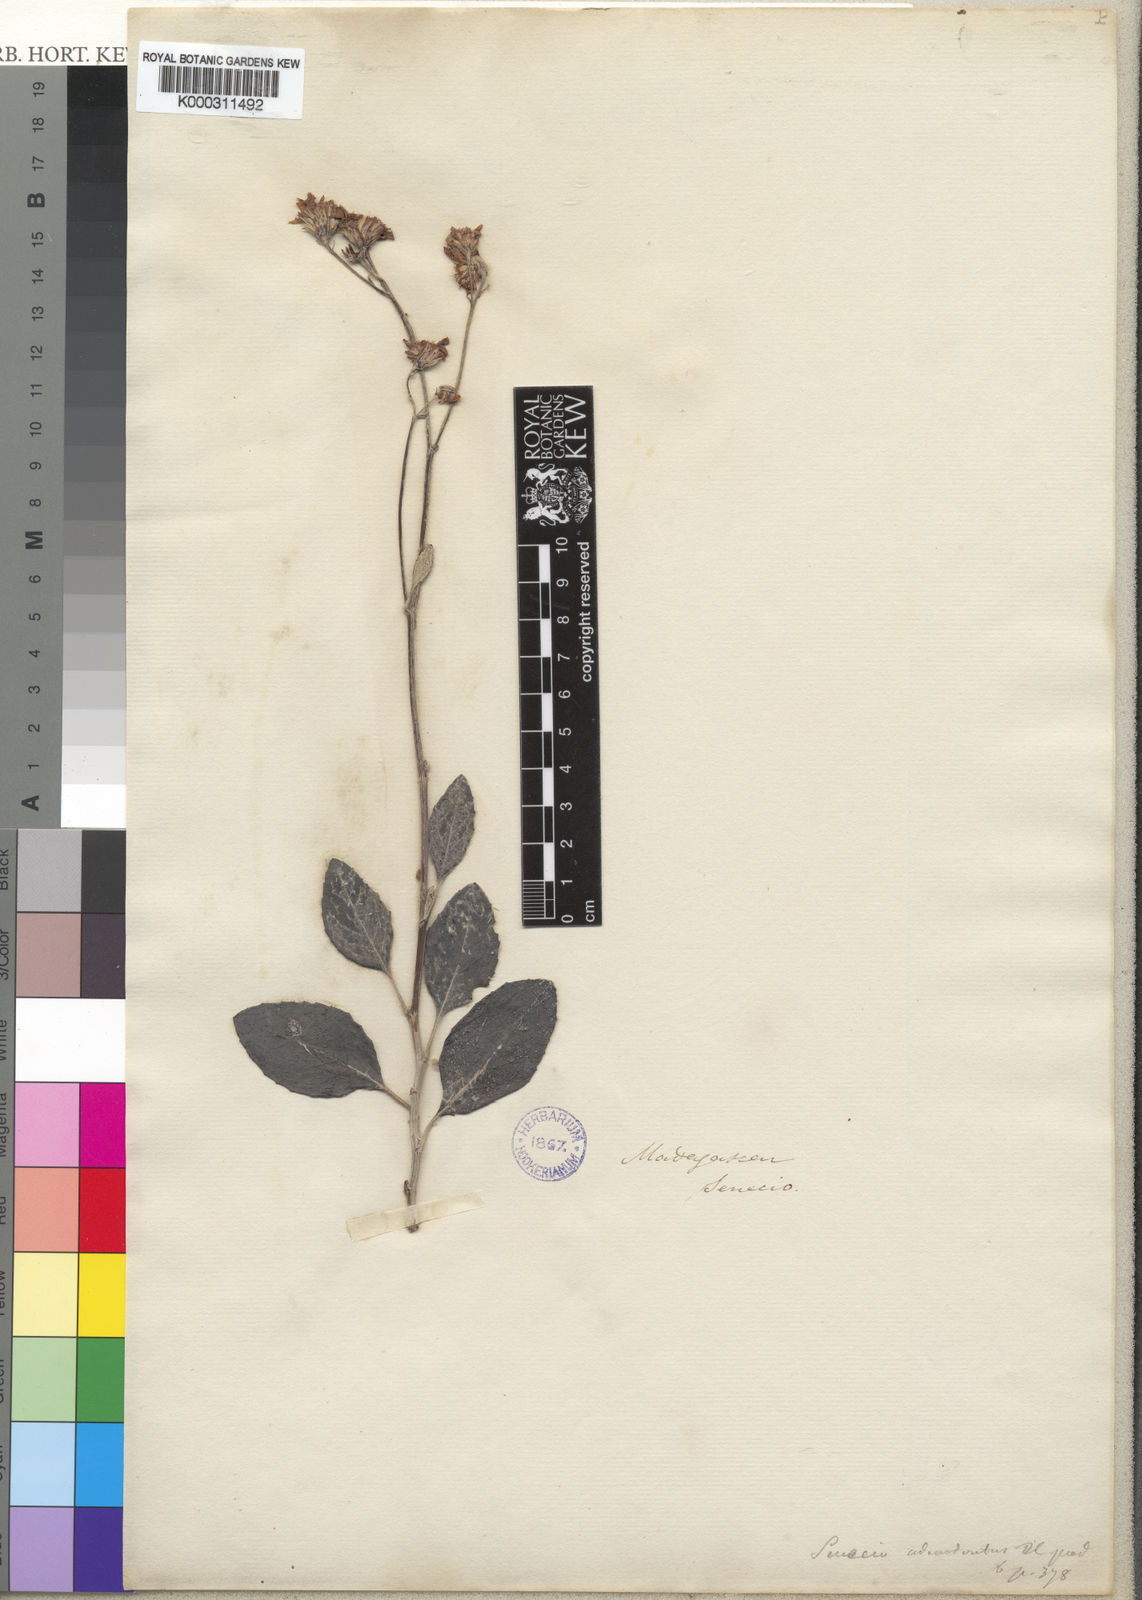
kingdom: Plantae
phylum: Tracheophyta
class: Magnoliopsida
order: Asterales
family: Asteraceae
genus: Senecio
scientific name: Senecio
